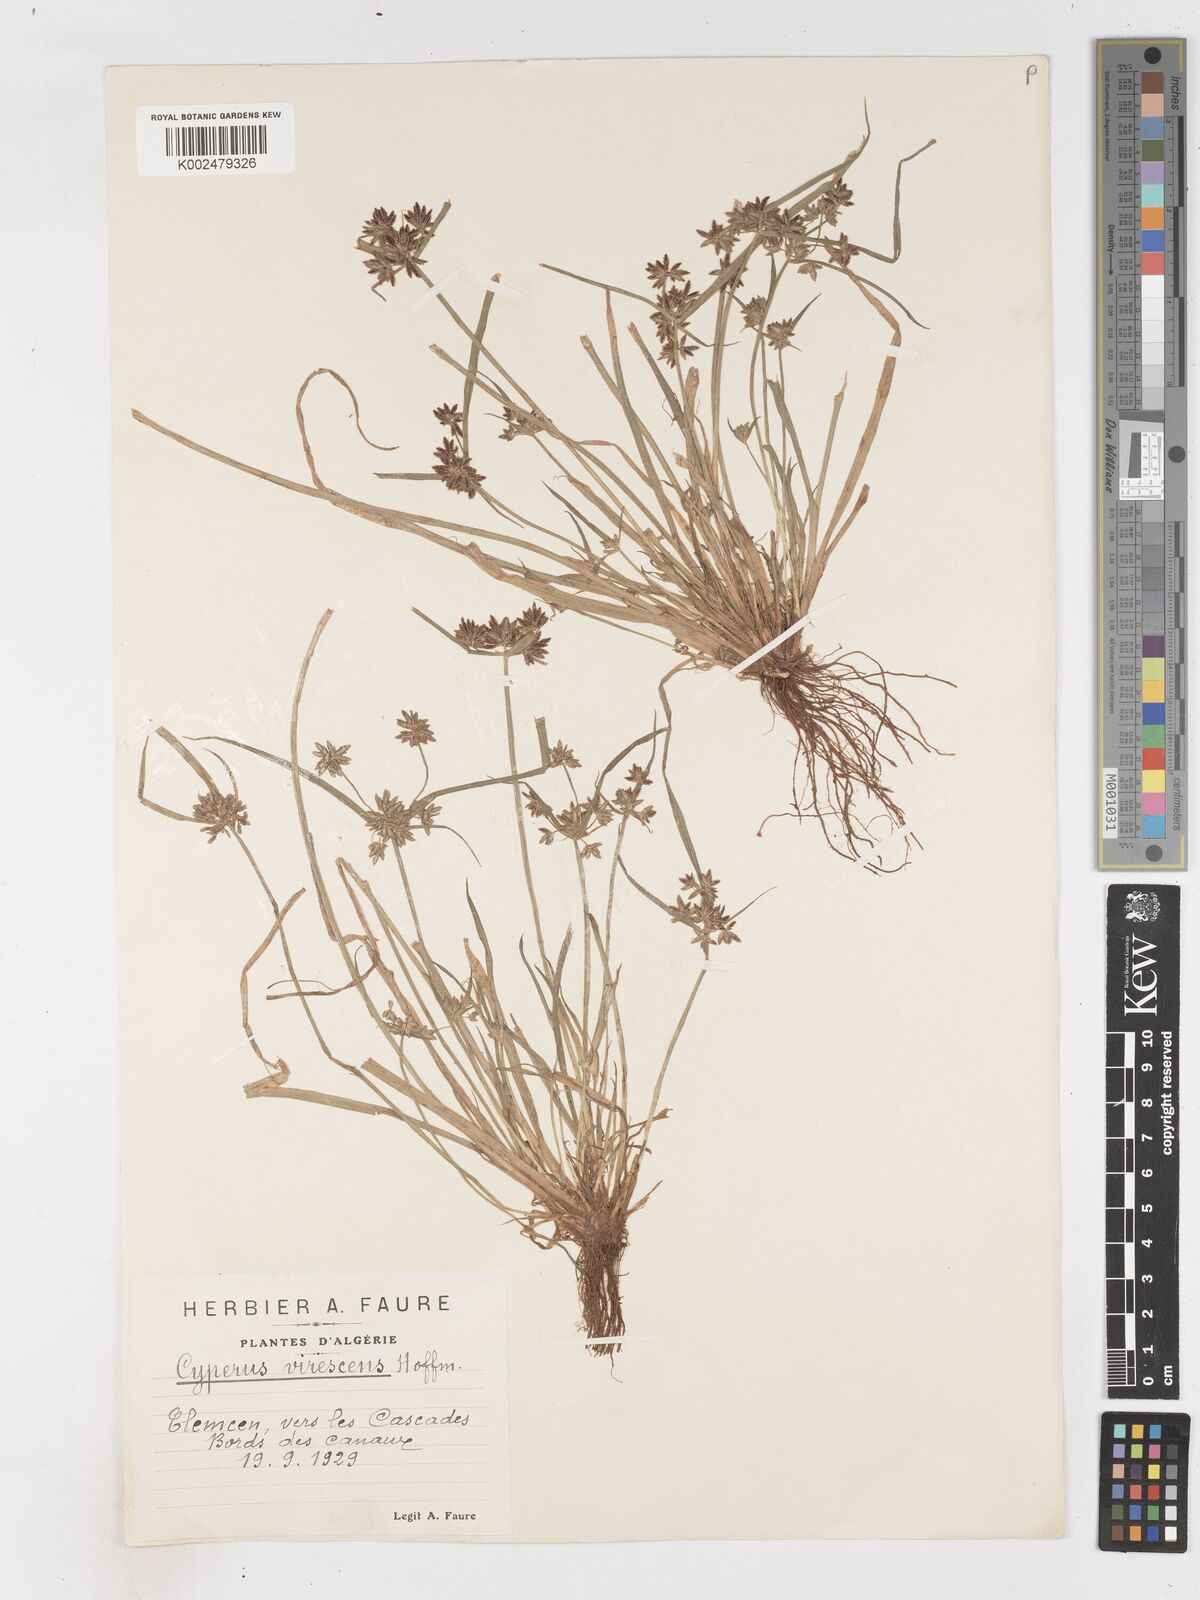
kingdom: Plantae
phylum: Tracheophyta
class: Liliopsida
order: Poales
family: Cyperaceae
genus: Cyperus
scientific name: Cyperus fuscus
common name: Brown galingale
